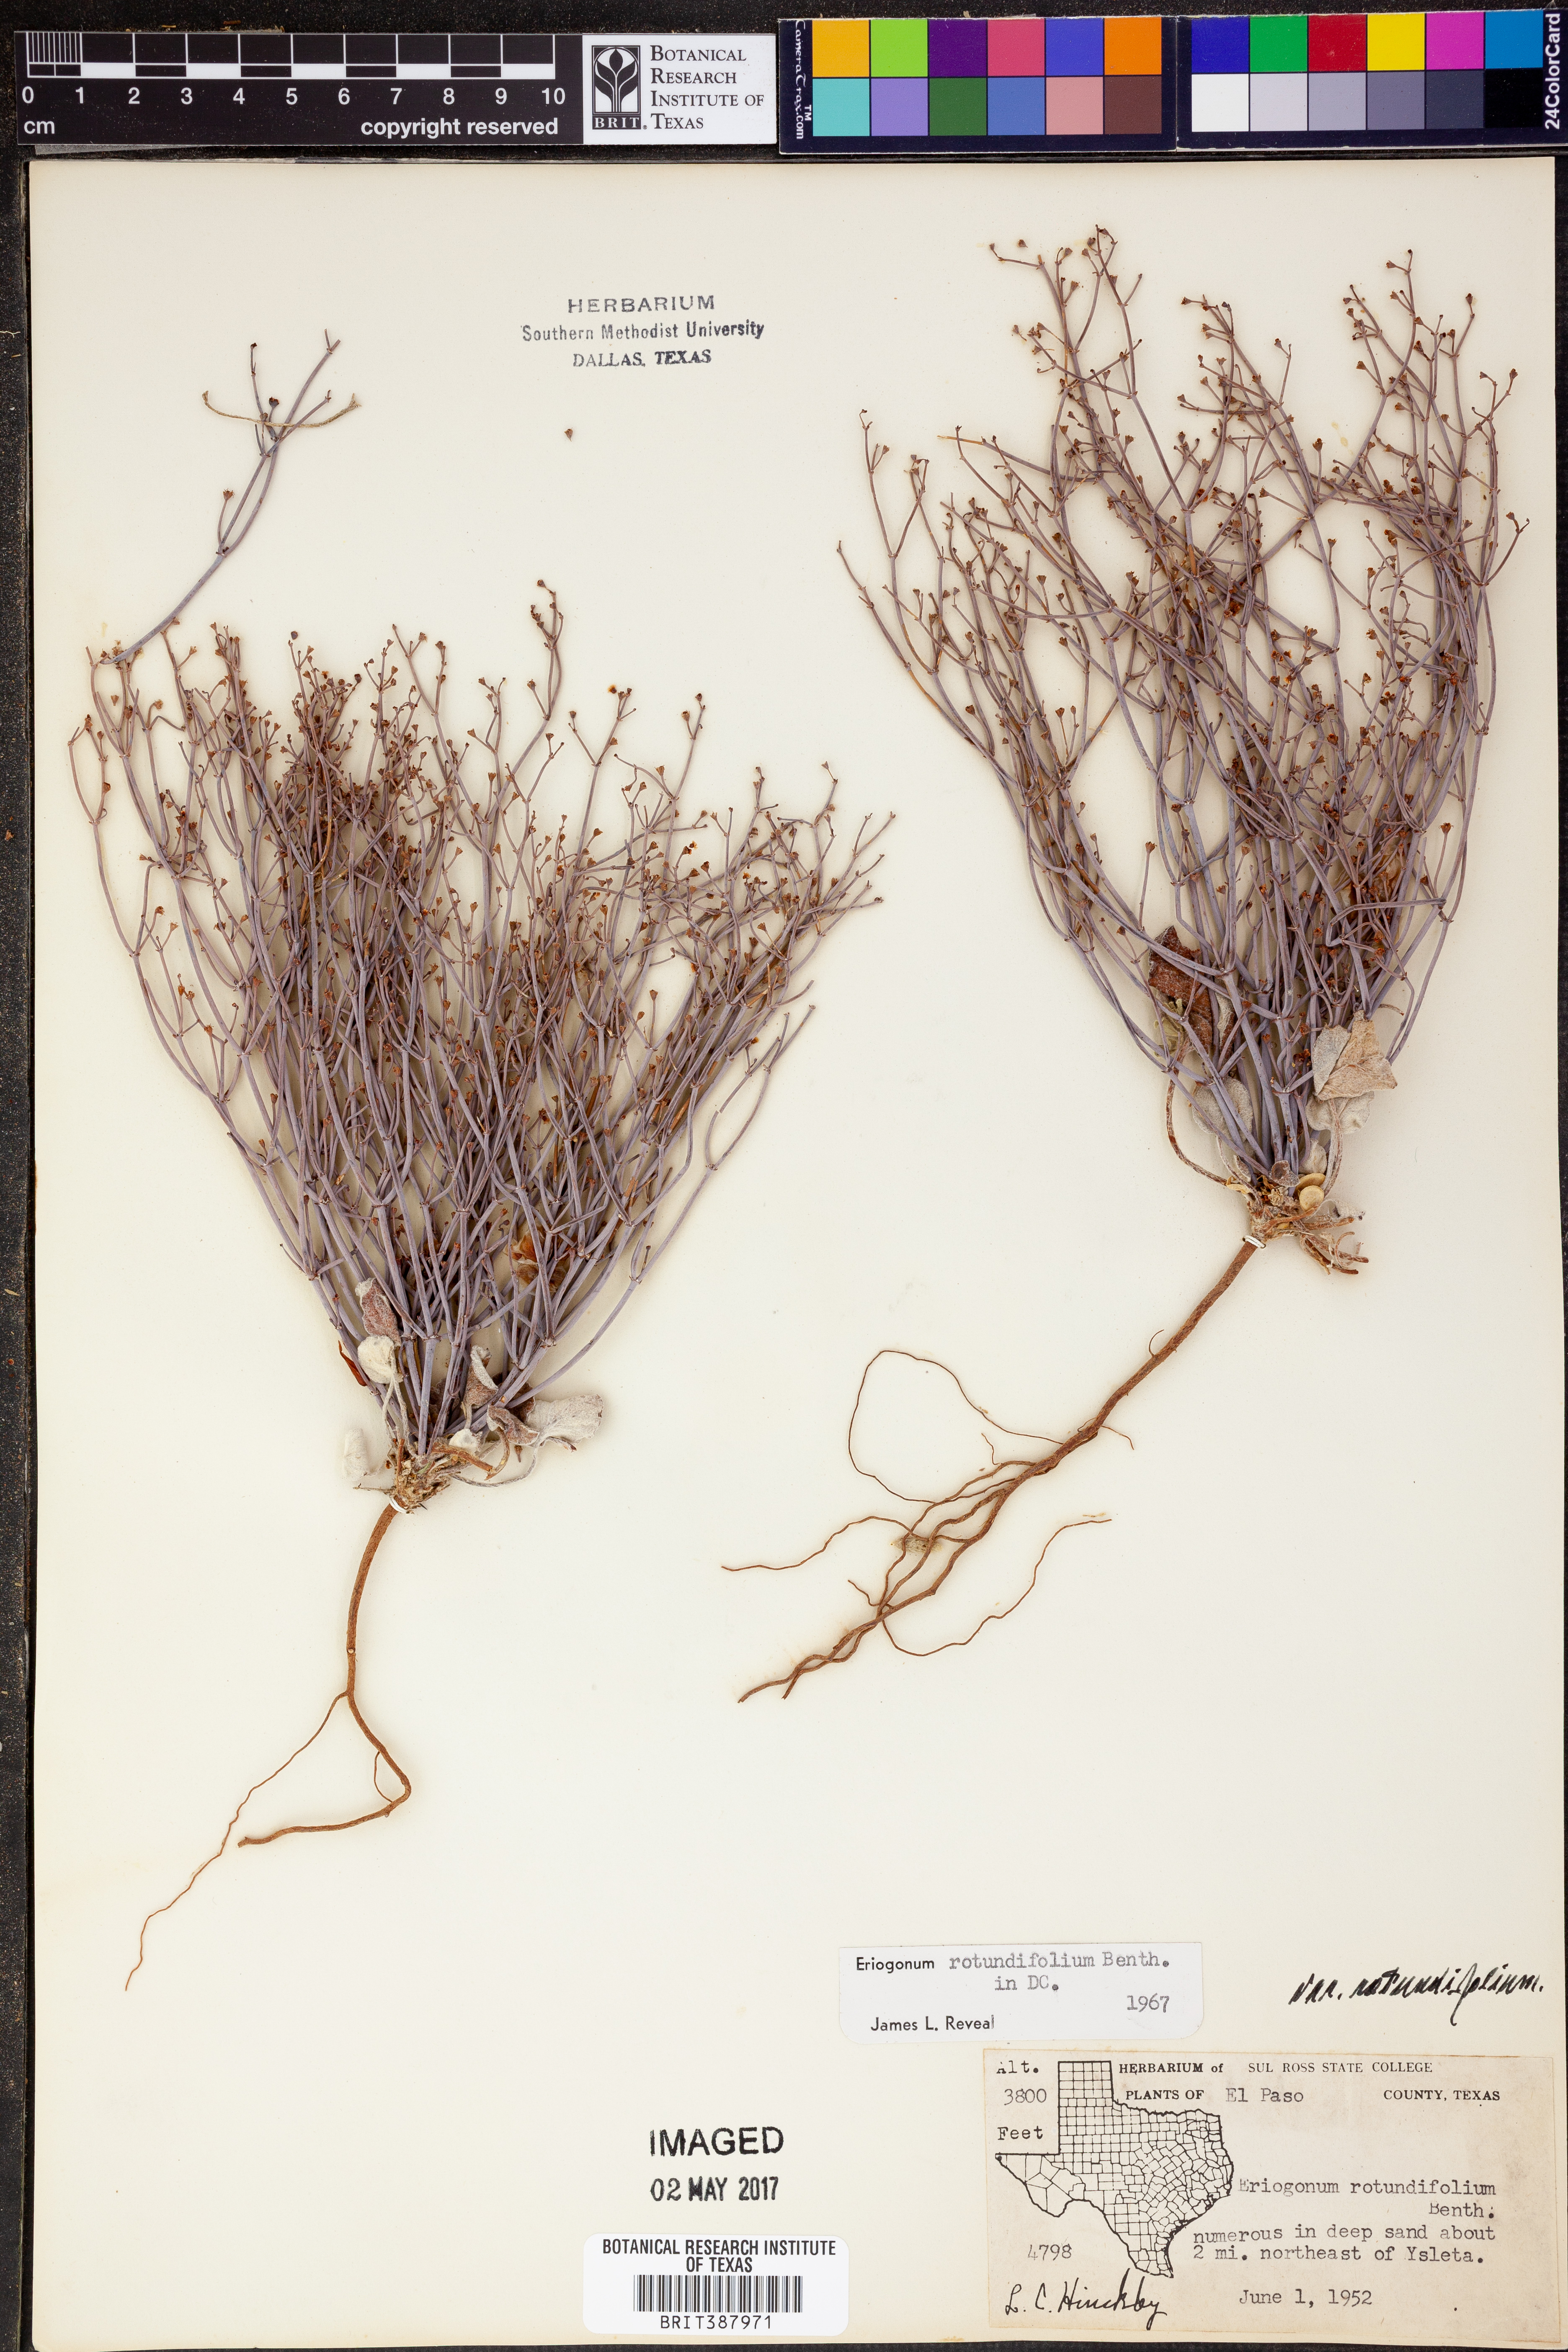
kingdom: Plantae
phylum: Tracheophyta
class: Magnoliopsida
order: Caryophyllales
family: Polygonaceae
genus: Eriogonum
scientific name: Eriogonum rotundifolium
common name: Round-leaf wild buckwheat
